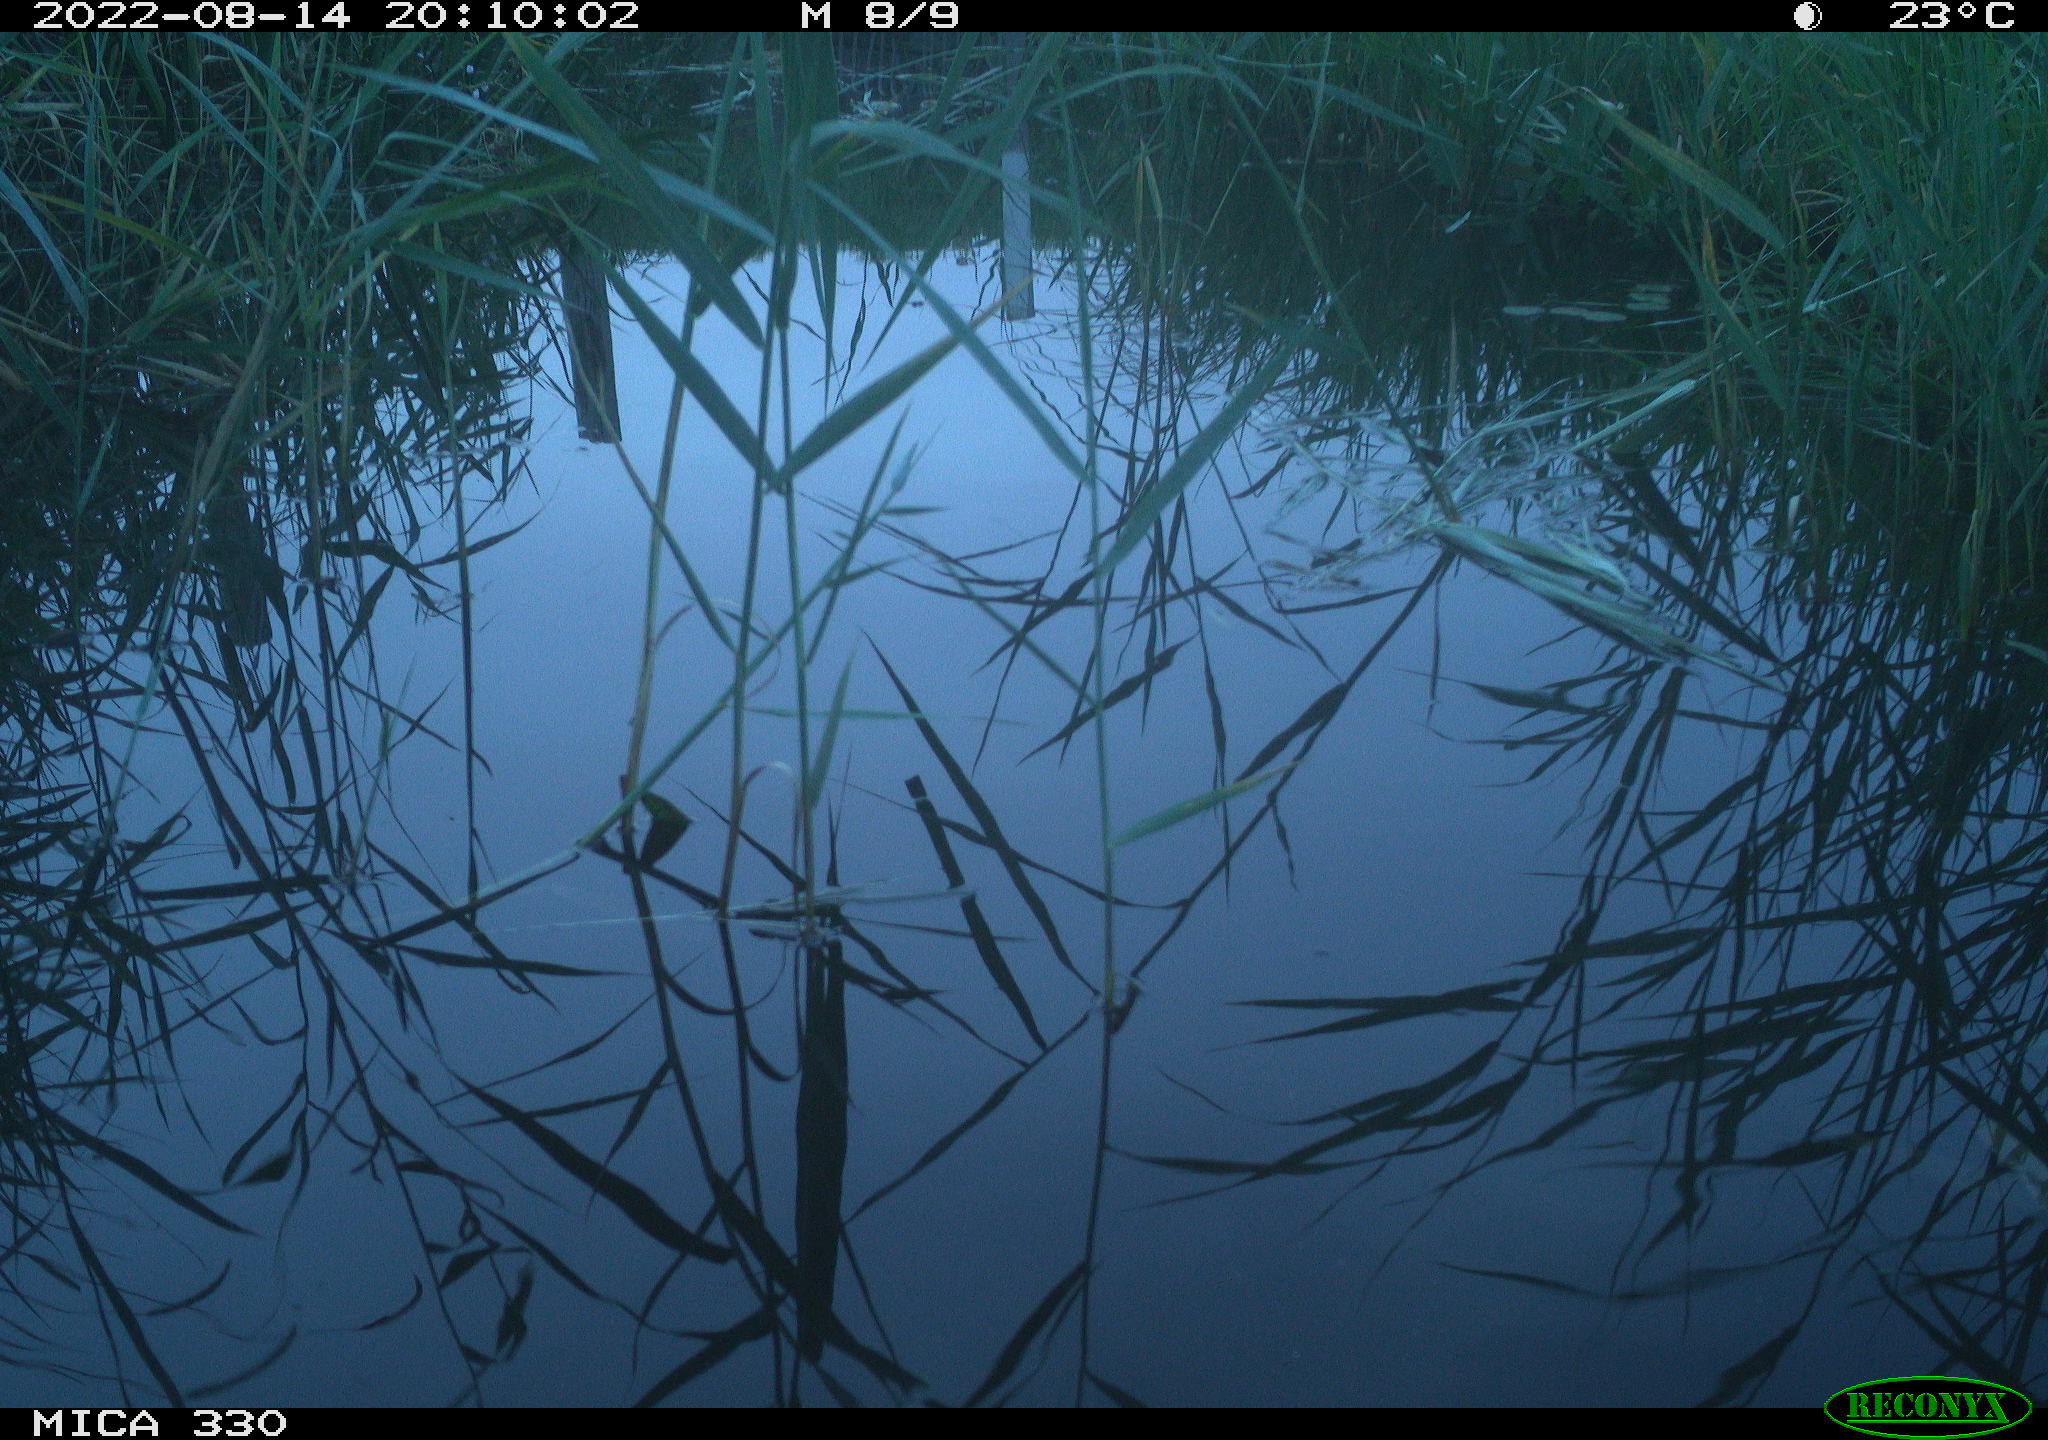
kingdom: Animalia
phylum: Chordata
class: Aves
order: Gruiformes
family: Rallidae
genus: Gallinula
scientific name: Gallinula chloropus
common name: Common moorhen
